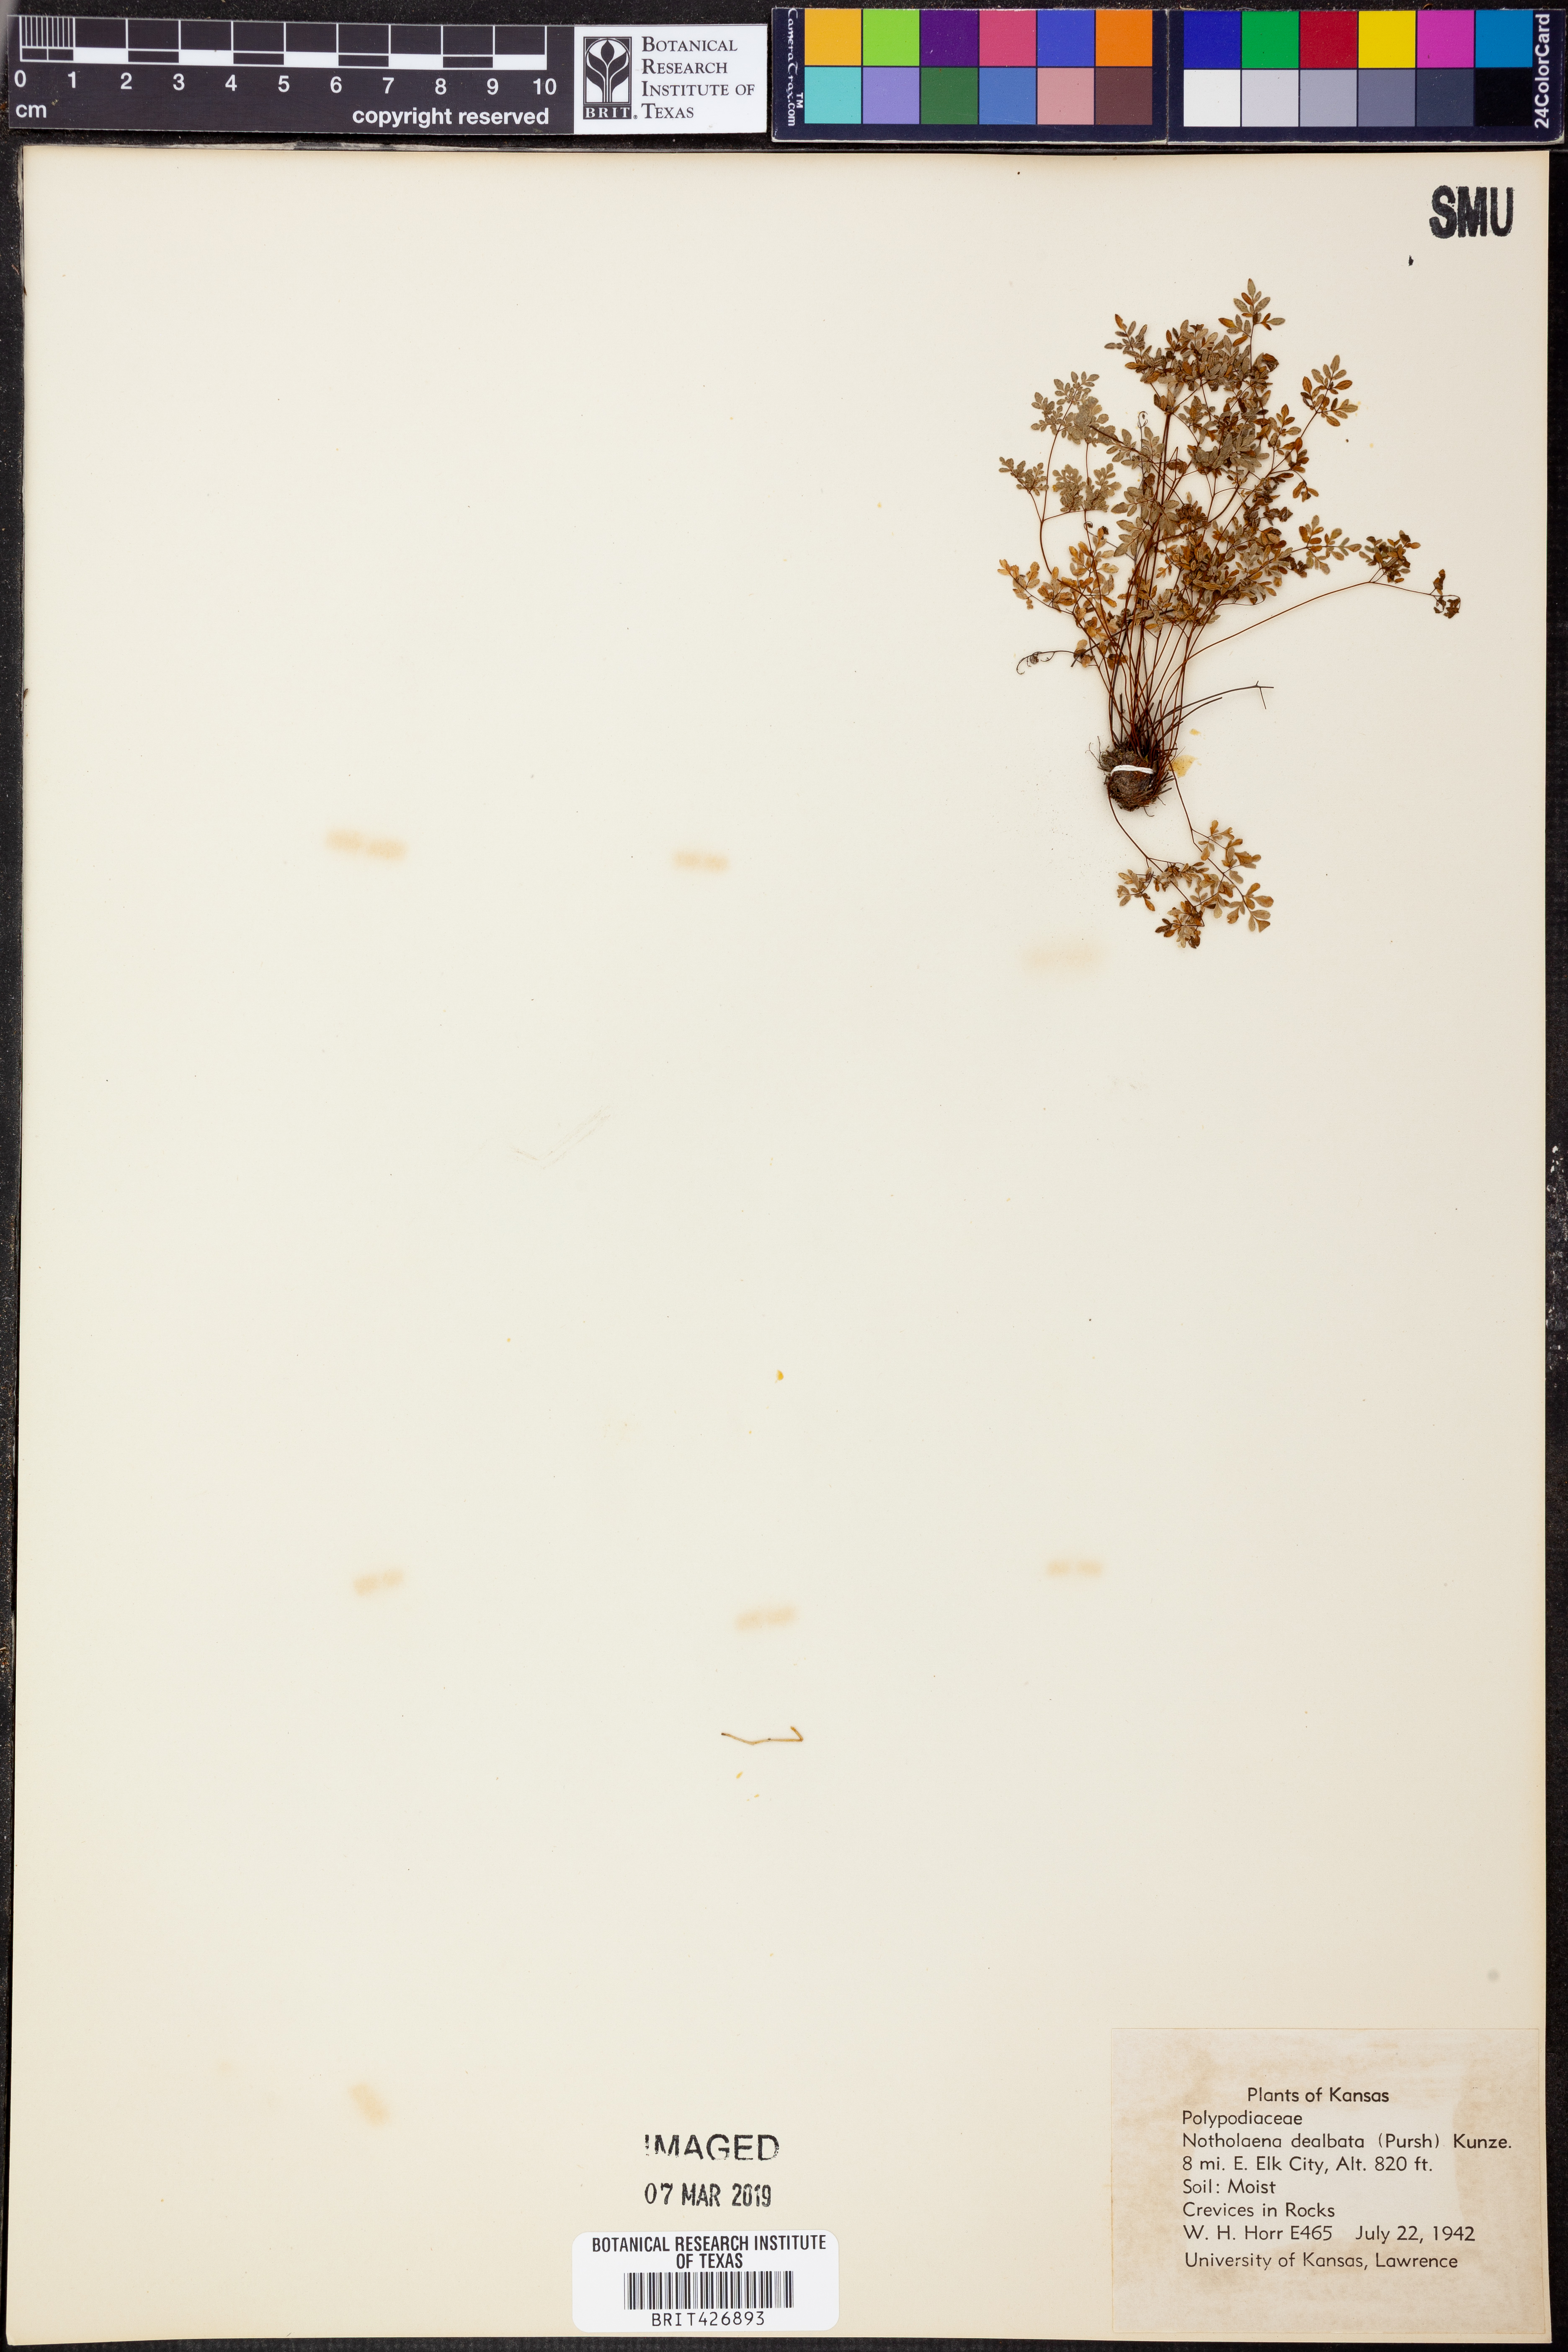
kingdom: Plantae
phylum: Tracheophyta
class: Polypodiopsida
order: Polypodiales
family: Pteridaceae
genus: Argyrochosma
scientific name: Argyrochosma dealbata
